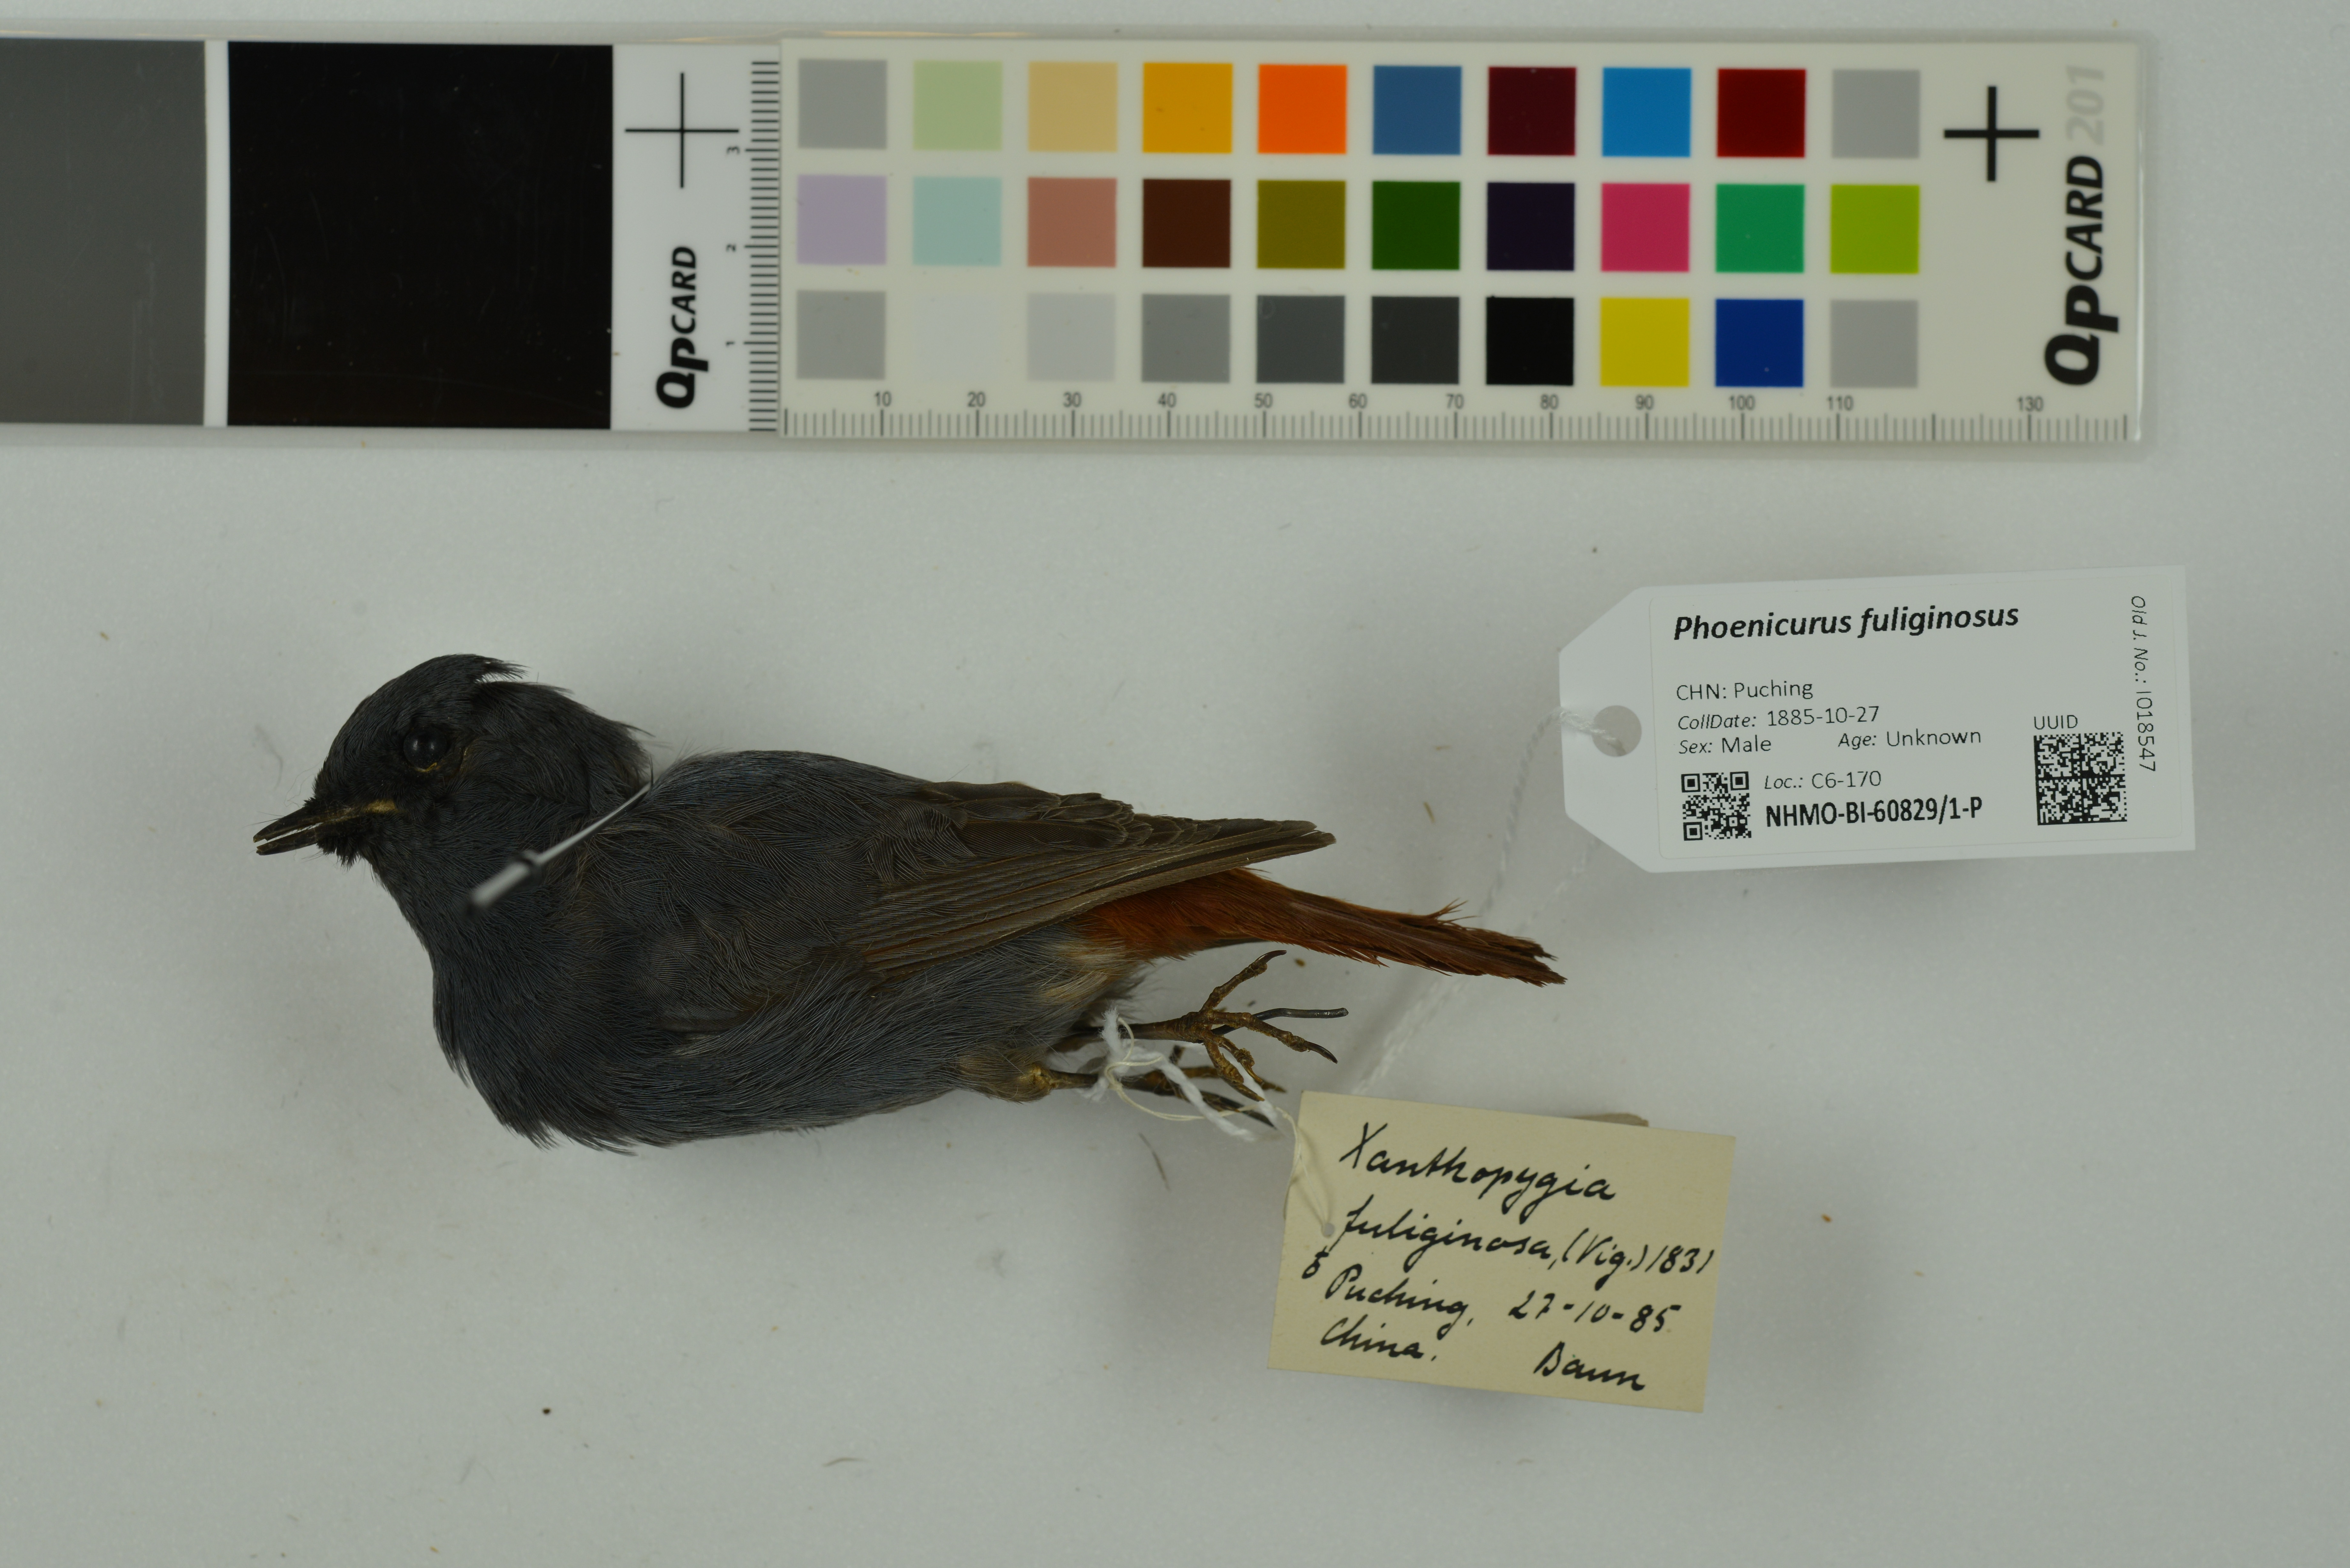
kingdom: Animalia
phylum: Chordata
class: Aves
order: Passeriformes
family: Muscicapidae
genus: Phoenicurus
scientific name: Phoenicurus fuliginosus
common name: Plumbeous water redstart
